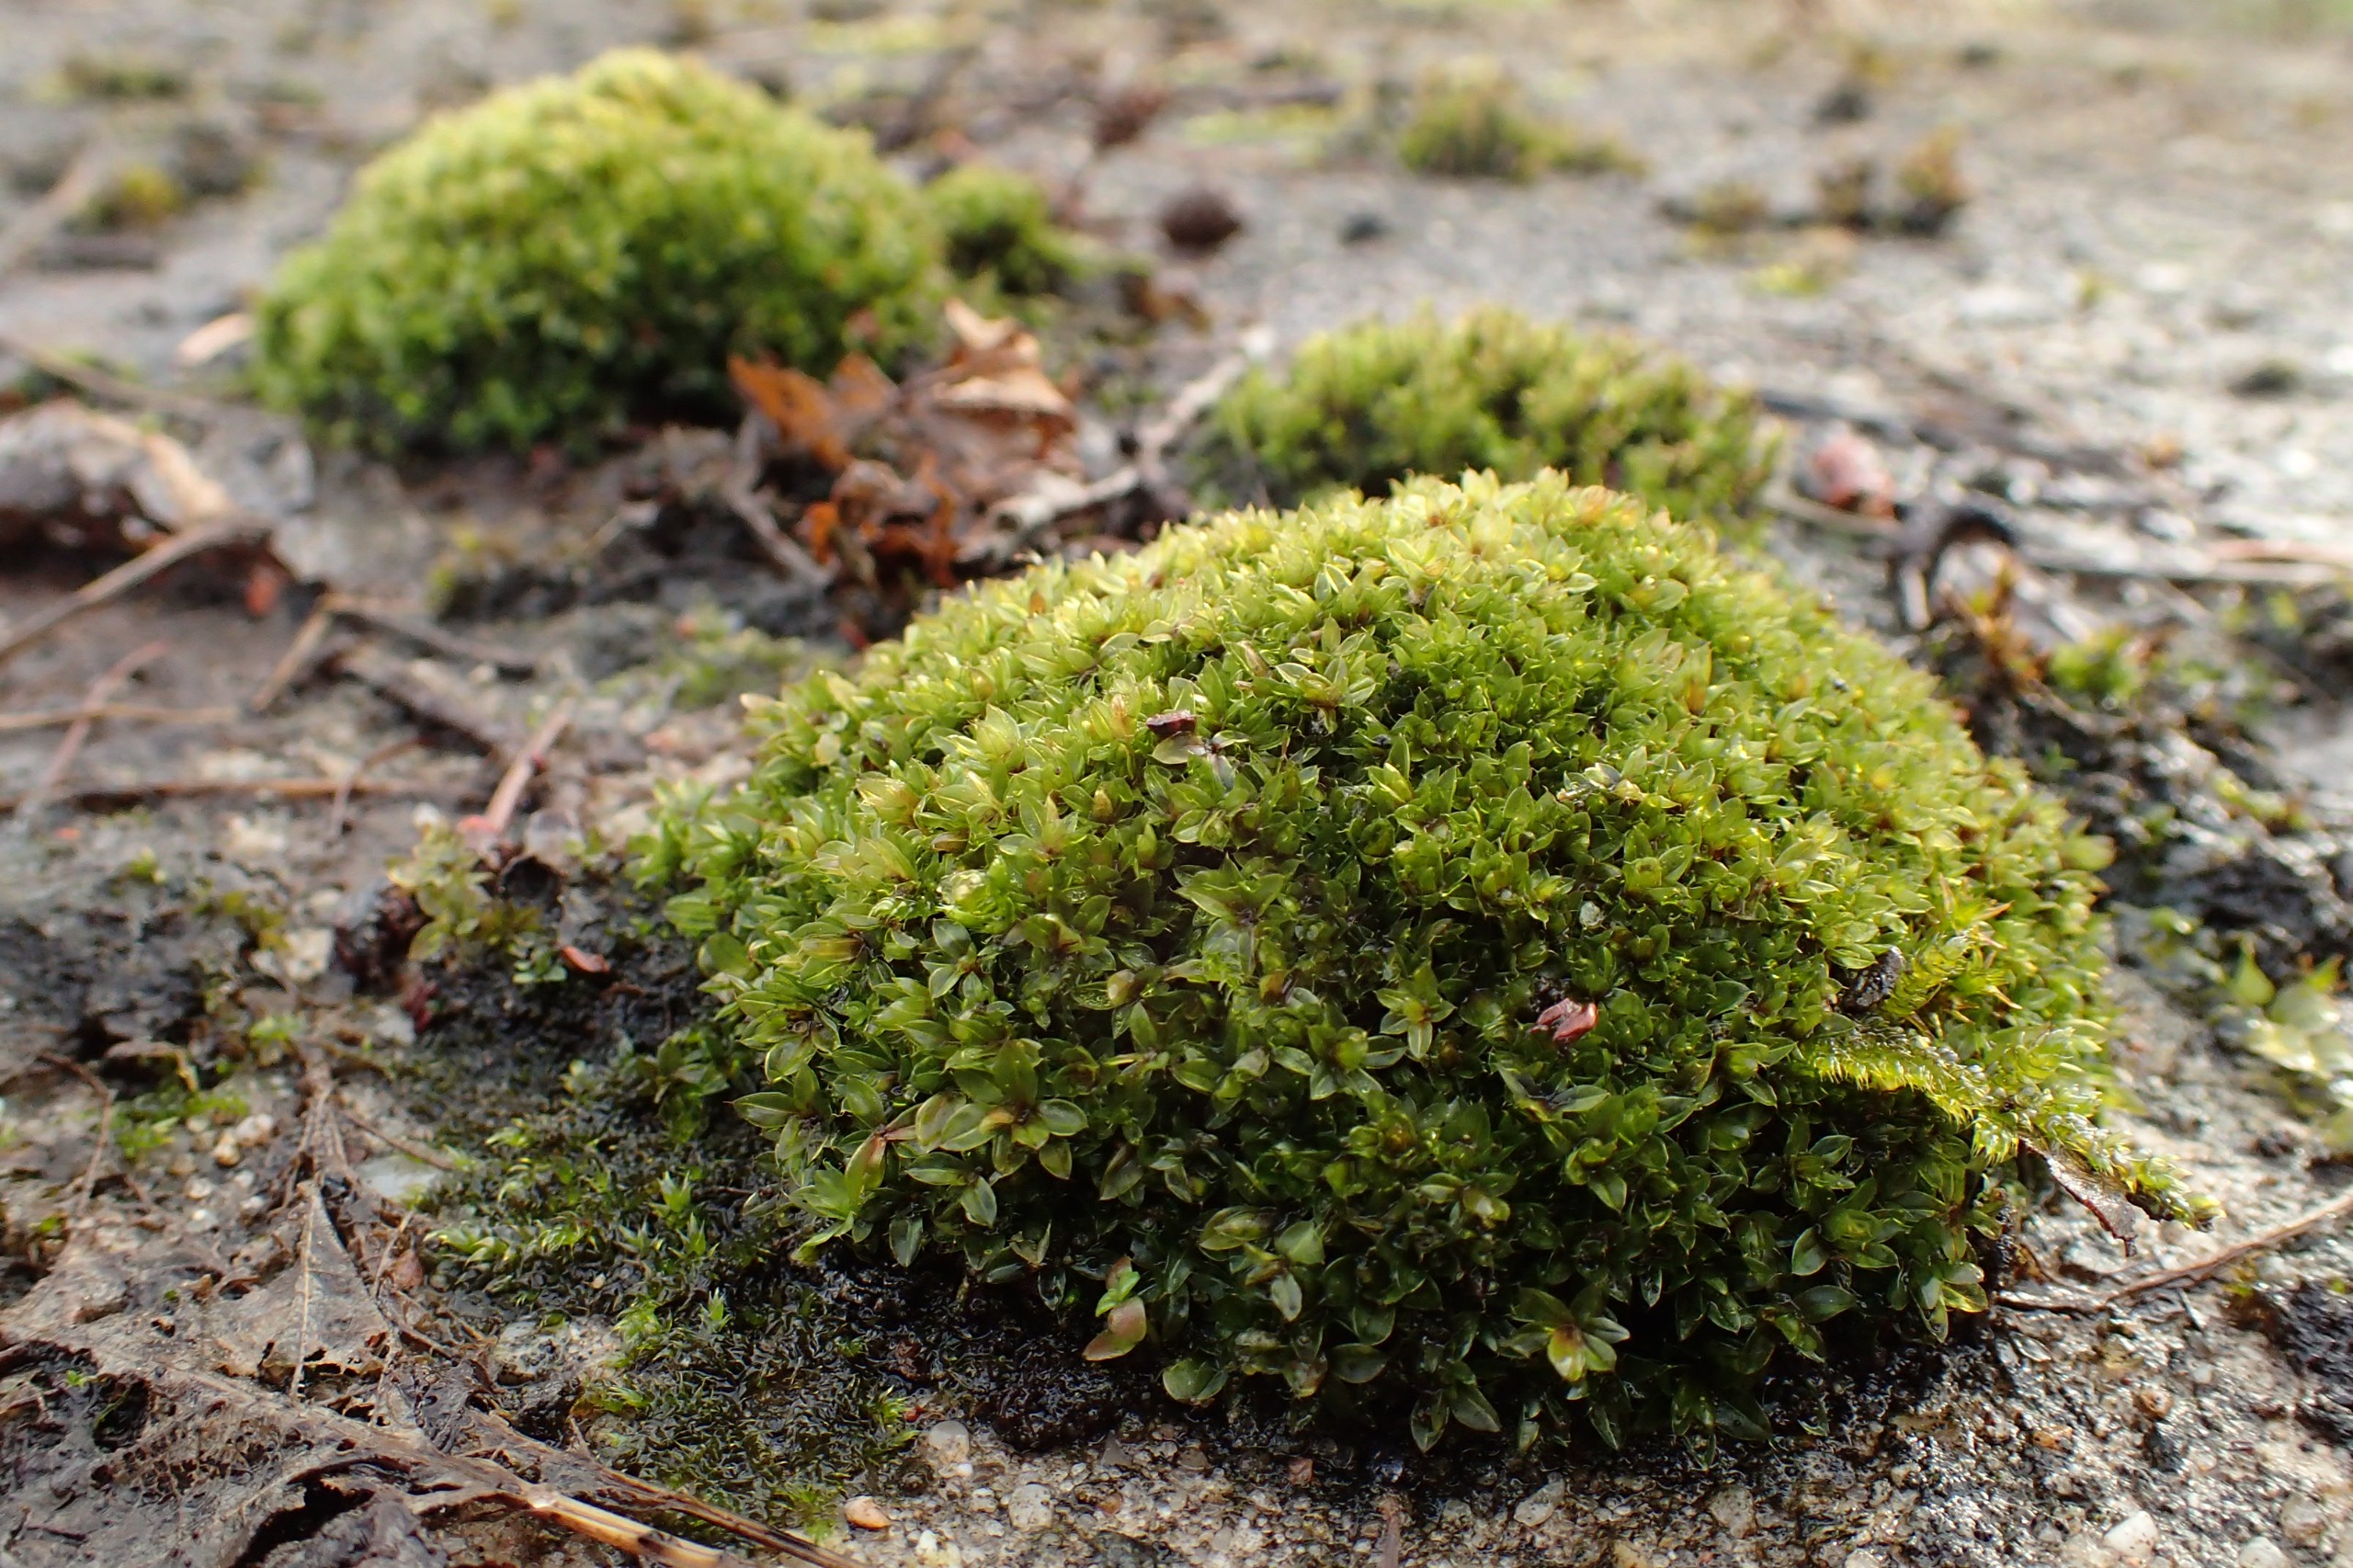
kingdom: Plantae
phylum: Bryophyta
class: Bryopsida
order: Bryales
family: Bryaceae
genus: Rosulabryum
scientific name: Rosulabryum capillare
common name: Hårspidset bryum
